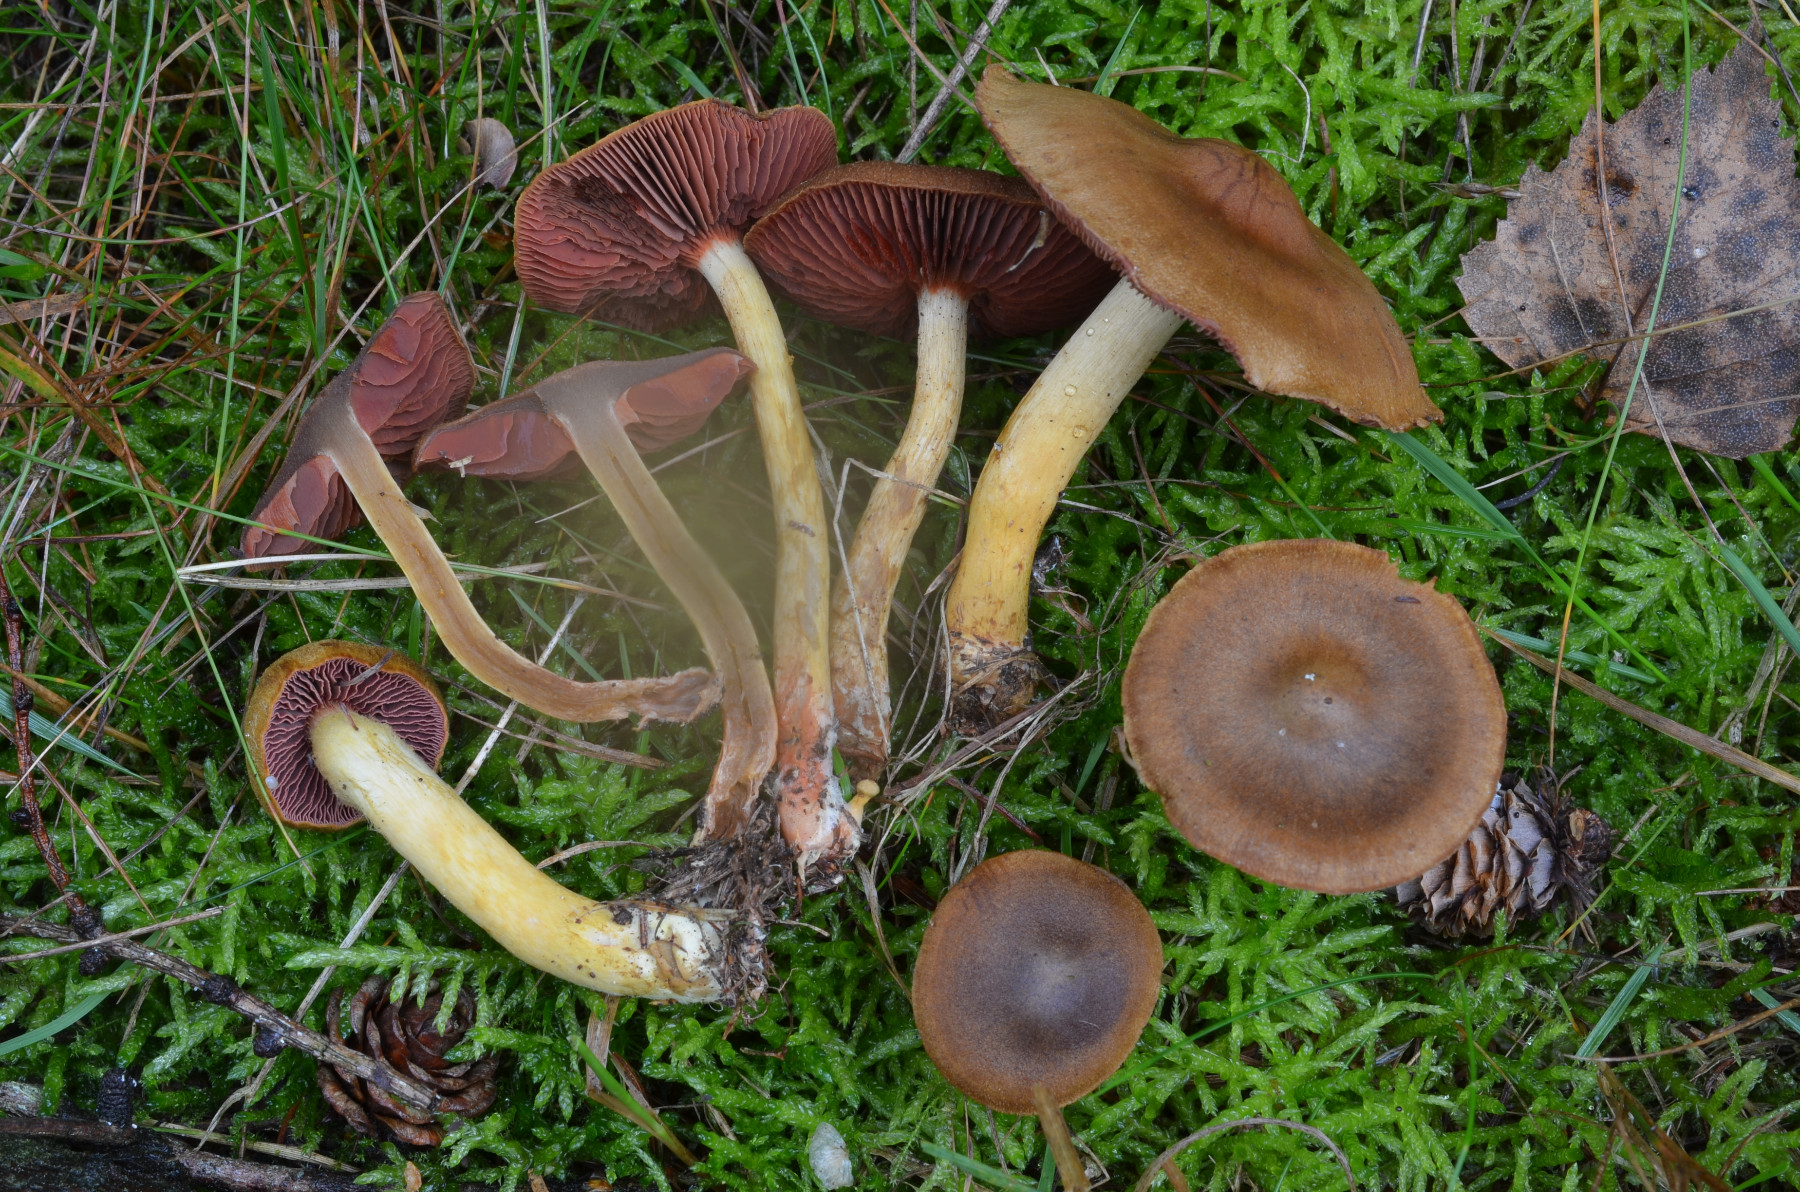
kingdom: Fungi
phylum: Basidiomycota
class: Agaricomycetes
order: Agaricales
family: Cortinariaceae
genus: Cortinarius
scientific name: Cortinarius
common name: cinnoberbladet slørhat
